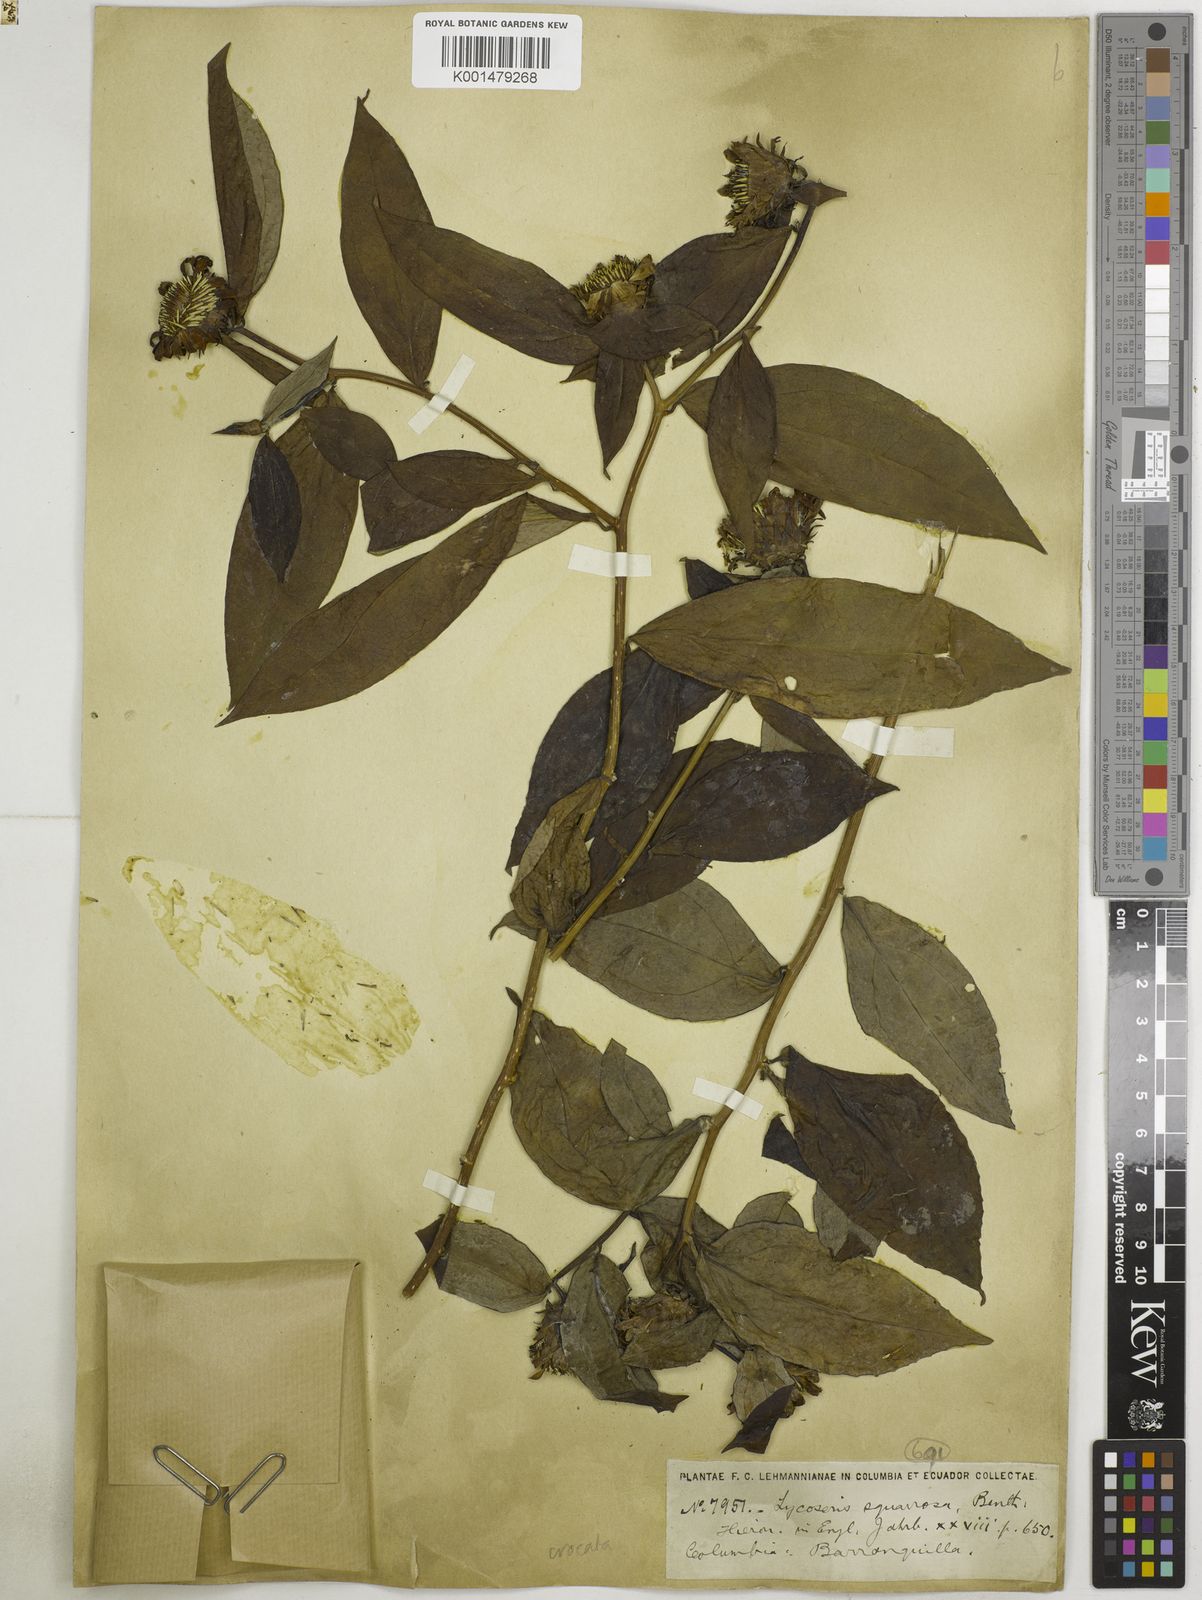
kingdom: Plantae
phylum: Tracheophyta
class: Magnoliopsida
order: Asterales
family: Asteraceae
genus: Lycoseris
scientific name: Lycoseris crocata
